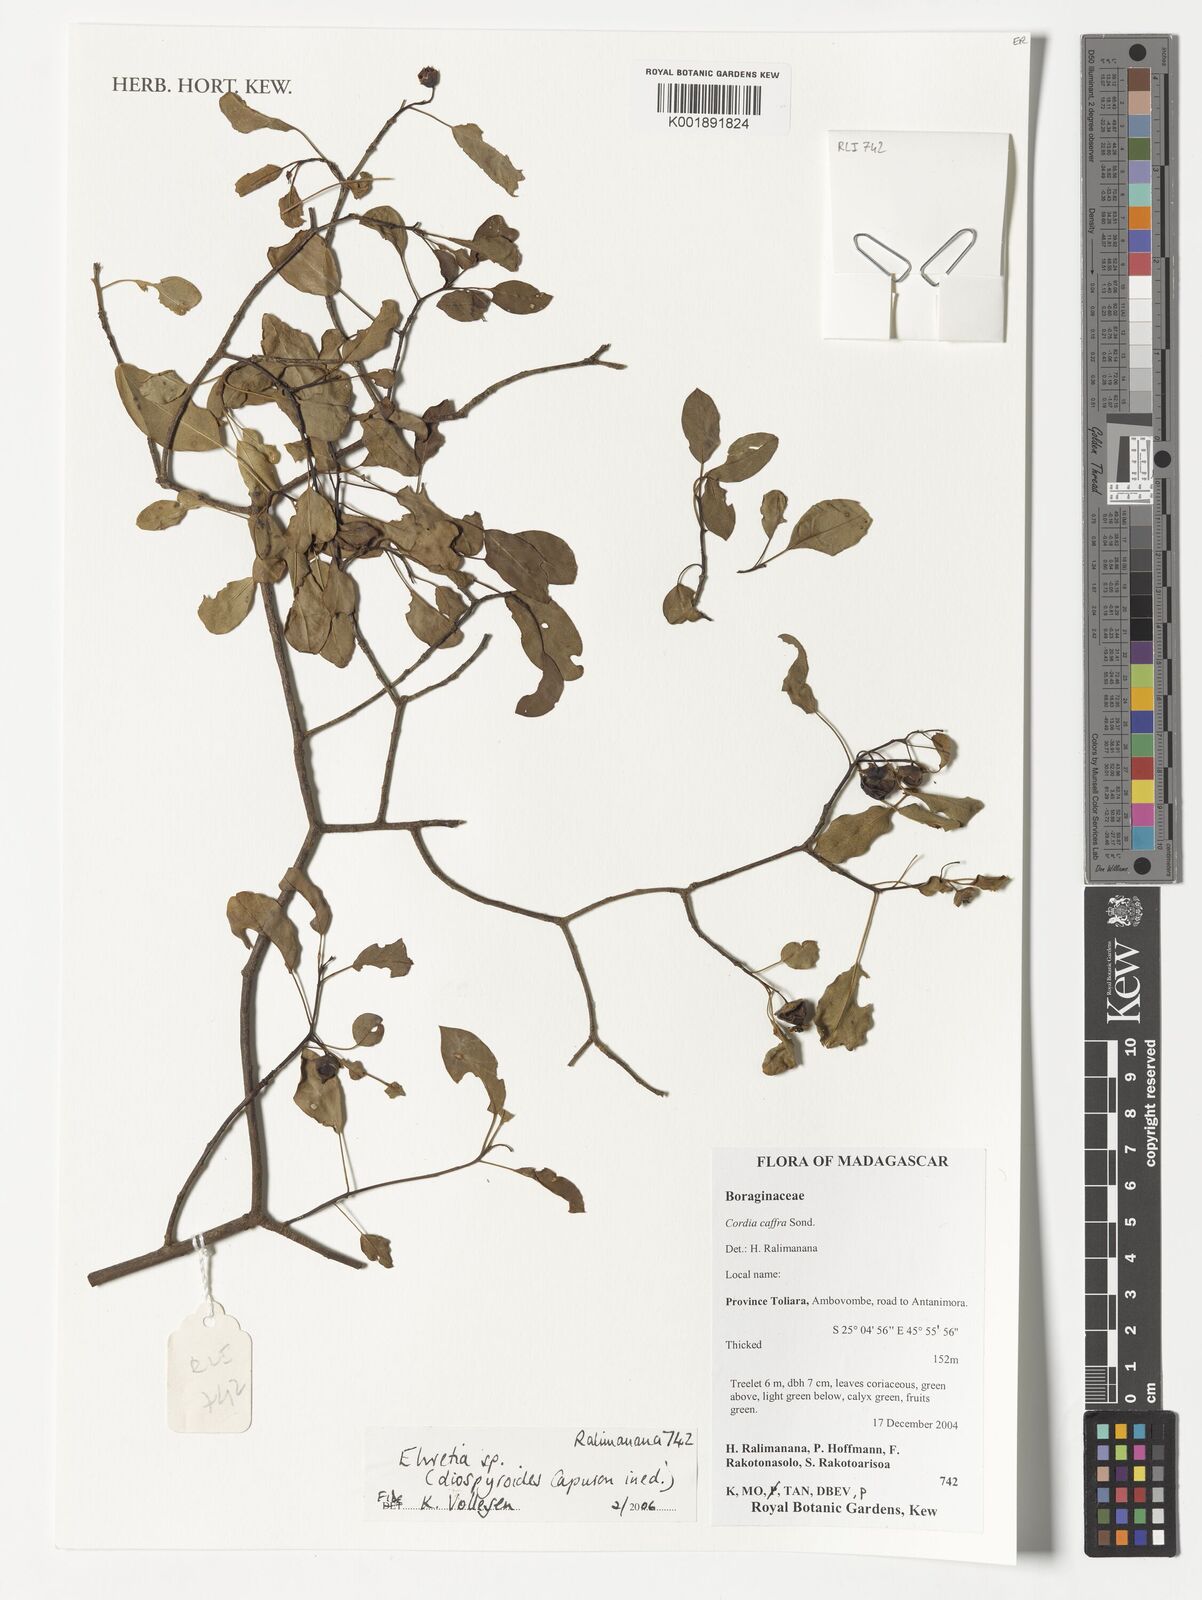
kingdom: Plantae
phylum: Tracheophyta
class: Magnoliopsida
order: Boraginales
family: Cordiaceae
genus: Cordia
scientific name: Cordia caffra
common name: Septee tree
